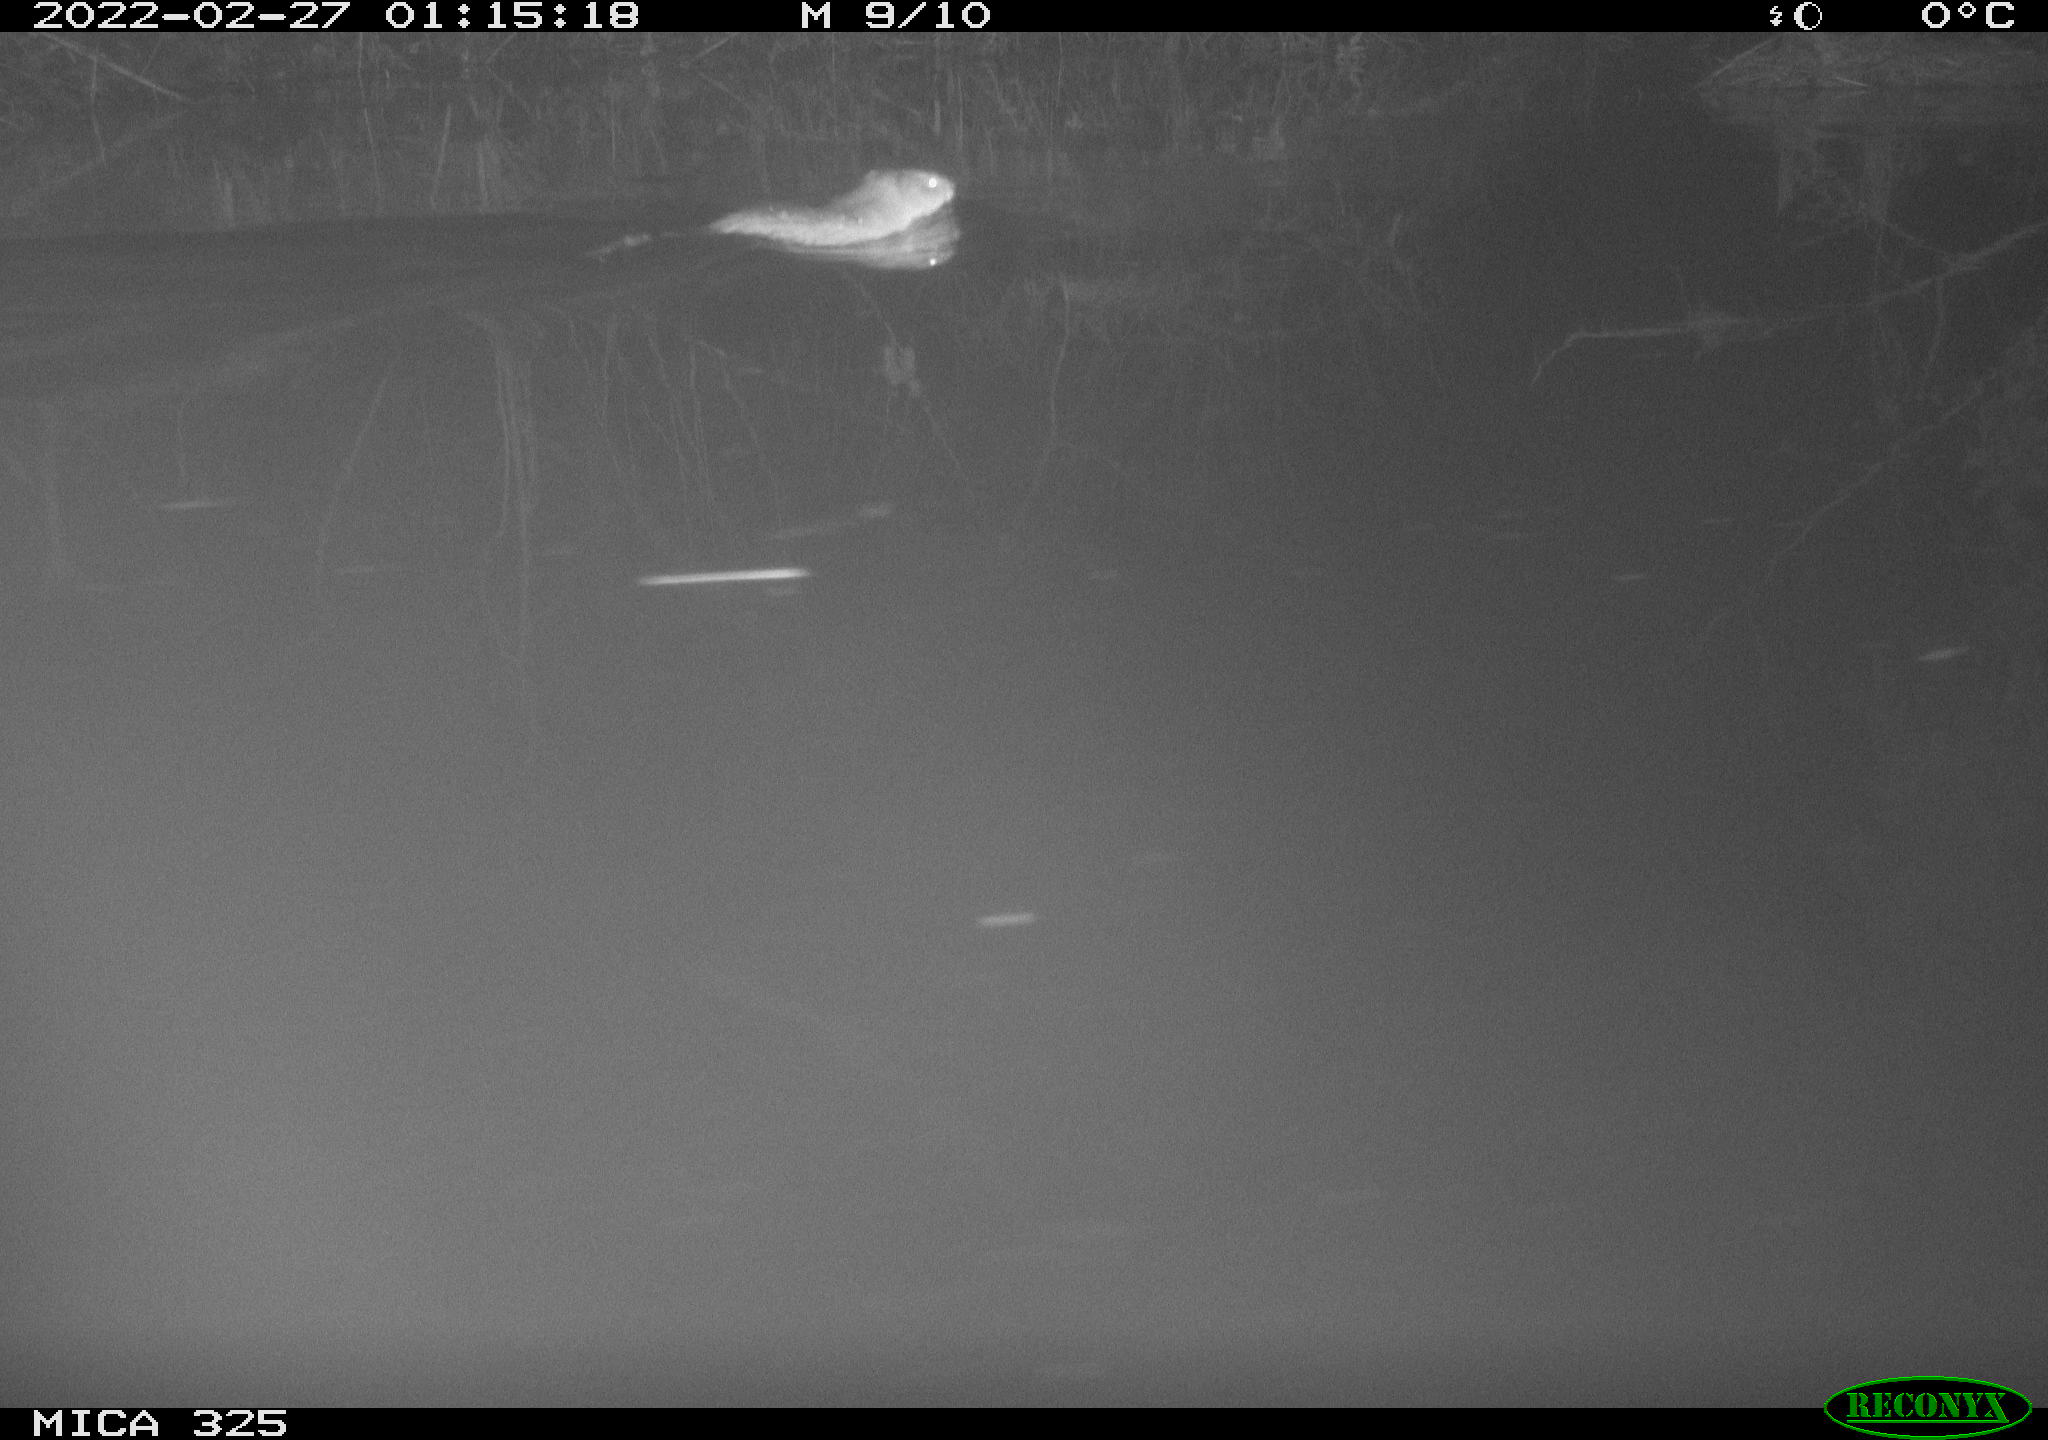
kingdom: Animalia
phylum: Chordata
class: Mammalia
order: Rodentia
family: Cricetidae
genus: Ondatra
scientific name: Ondatra zibethicus
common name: Muskrat
